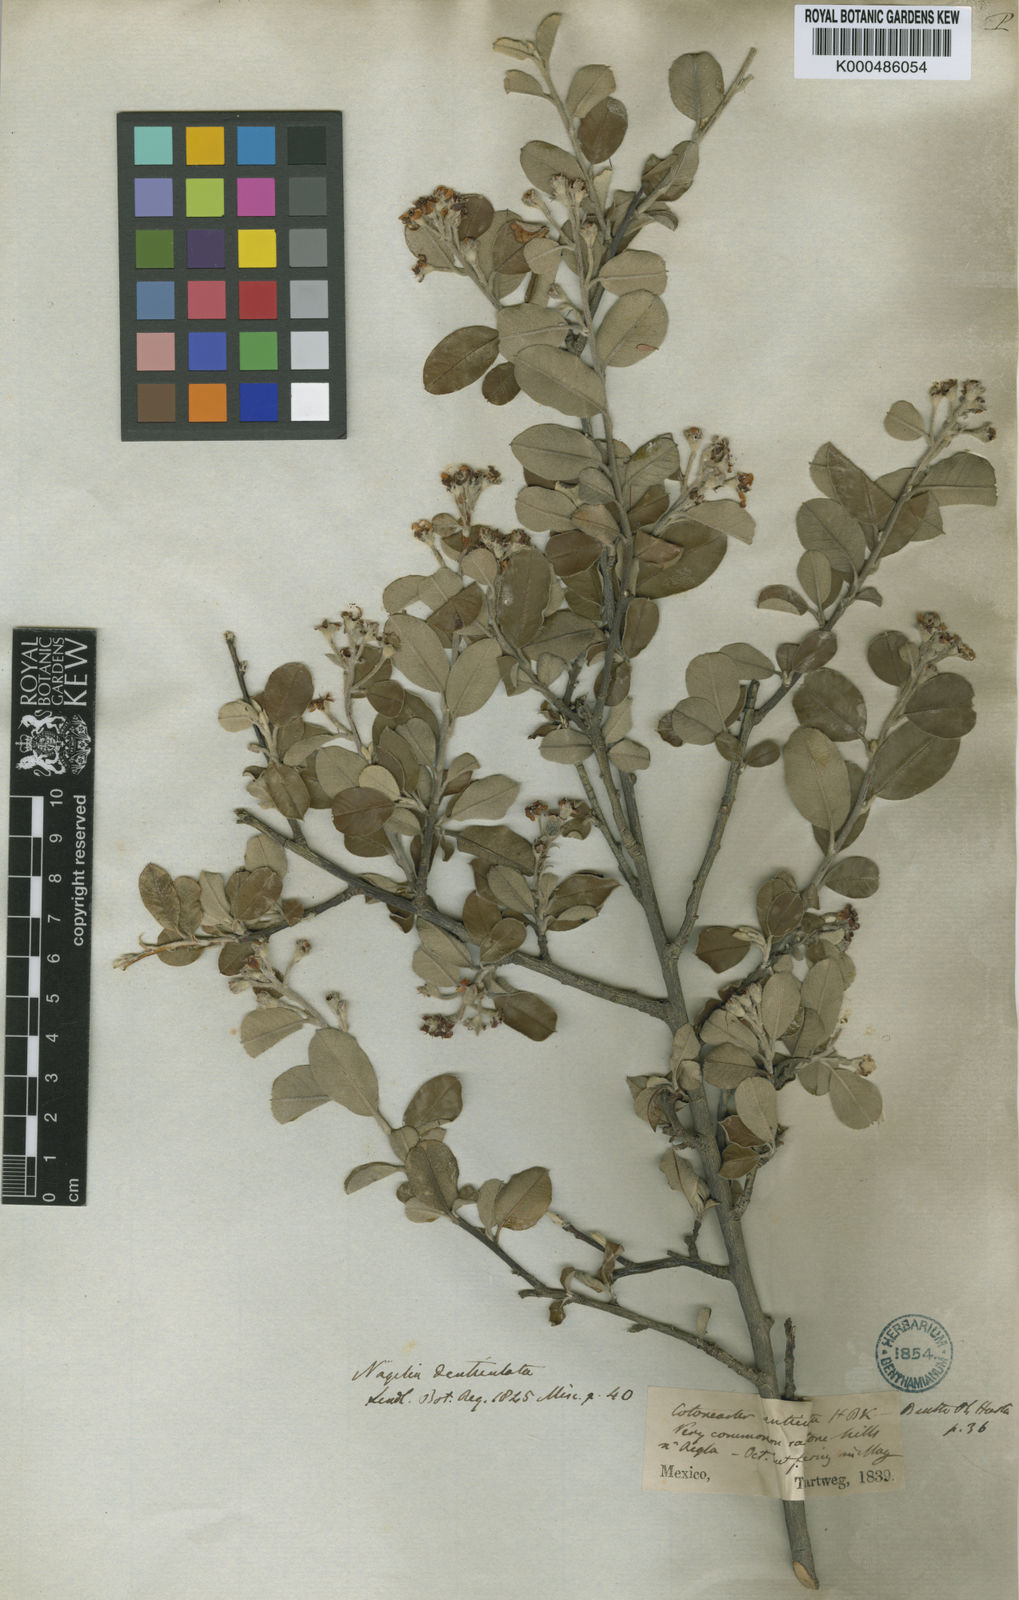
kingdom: Plantae
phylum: Tracheophyta
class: Magnoliopsida
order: Rosales
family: Rosaceae
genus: Malacomeles
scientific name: Malacomeles
